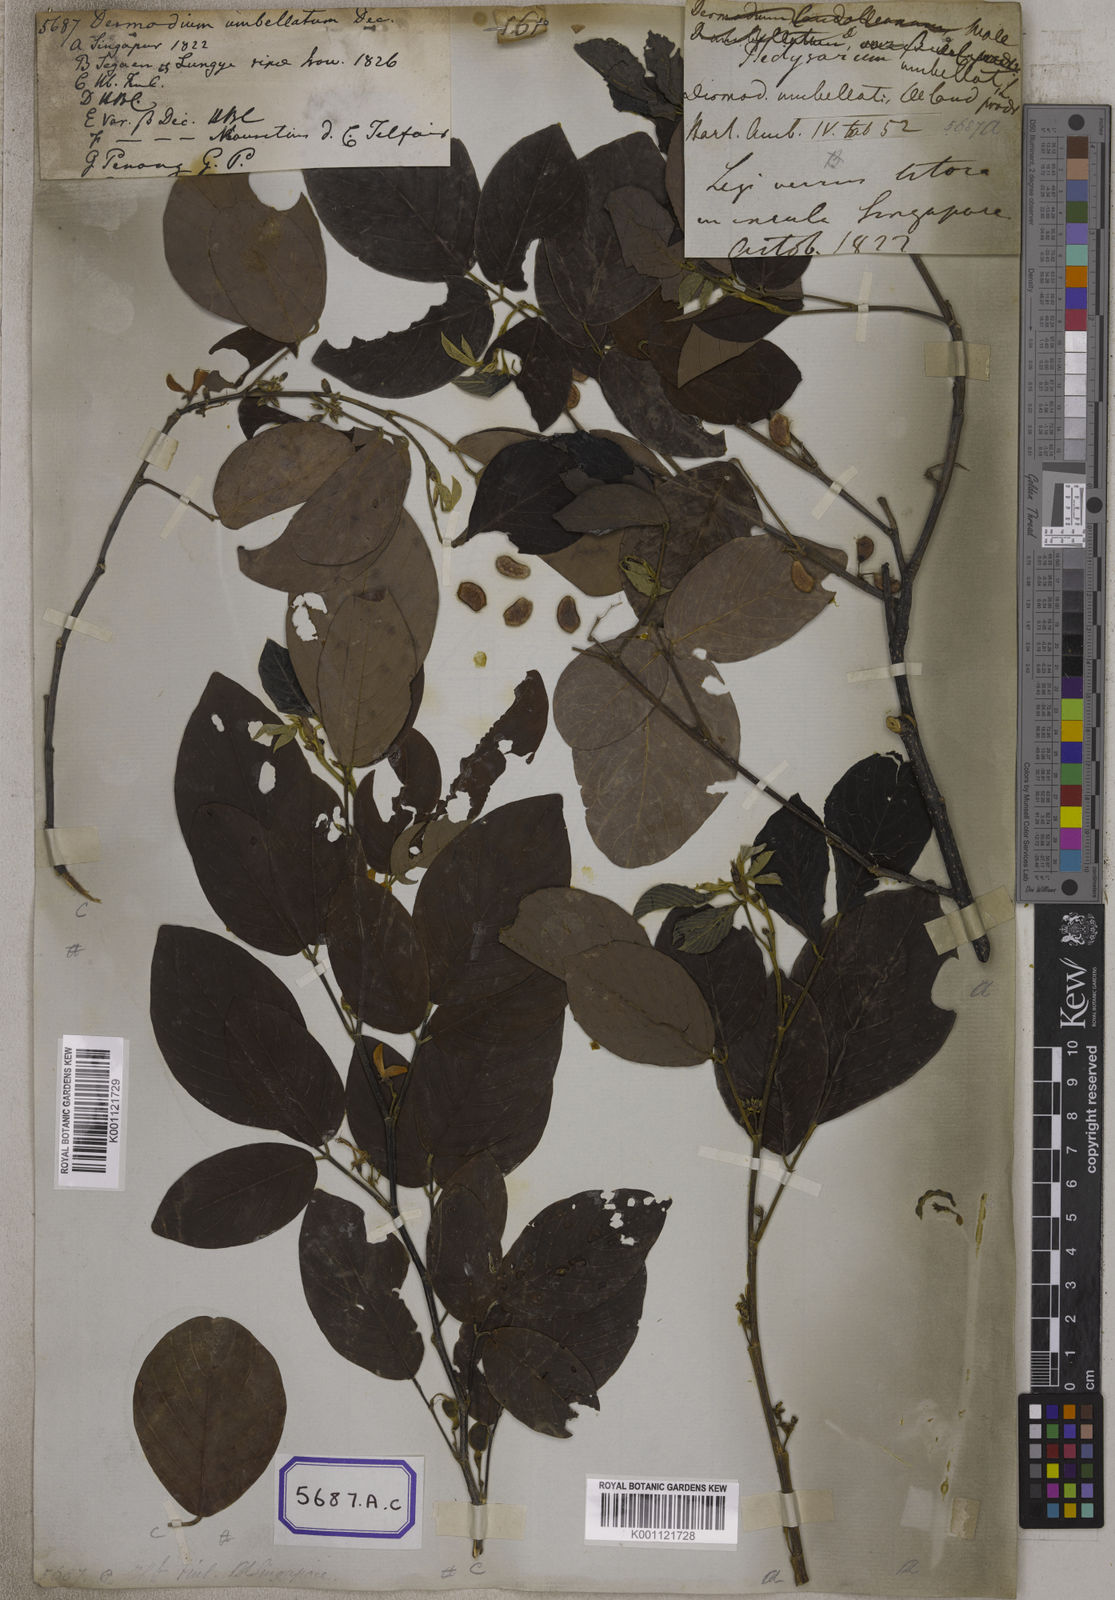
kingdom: Plantae
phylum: Tracheophyta
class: Magnoliopsida
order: Fabales
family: Fabaceae
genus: Dendrolobium
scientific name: Dendrolobium umbellatum
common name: Horsebush
